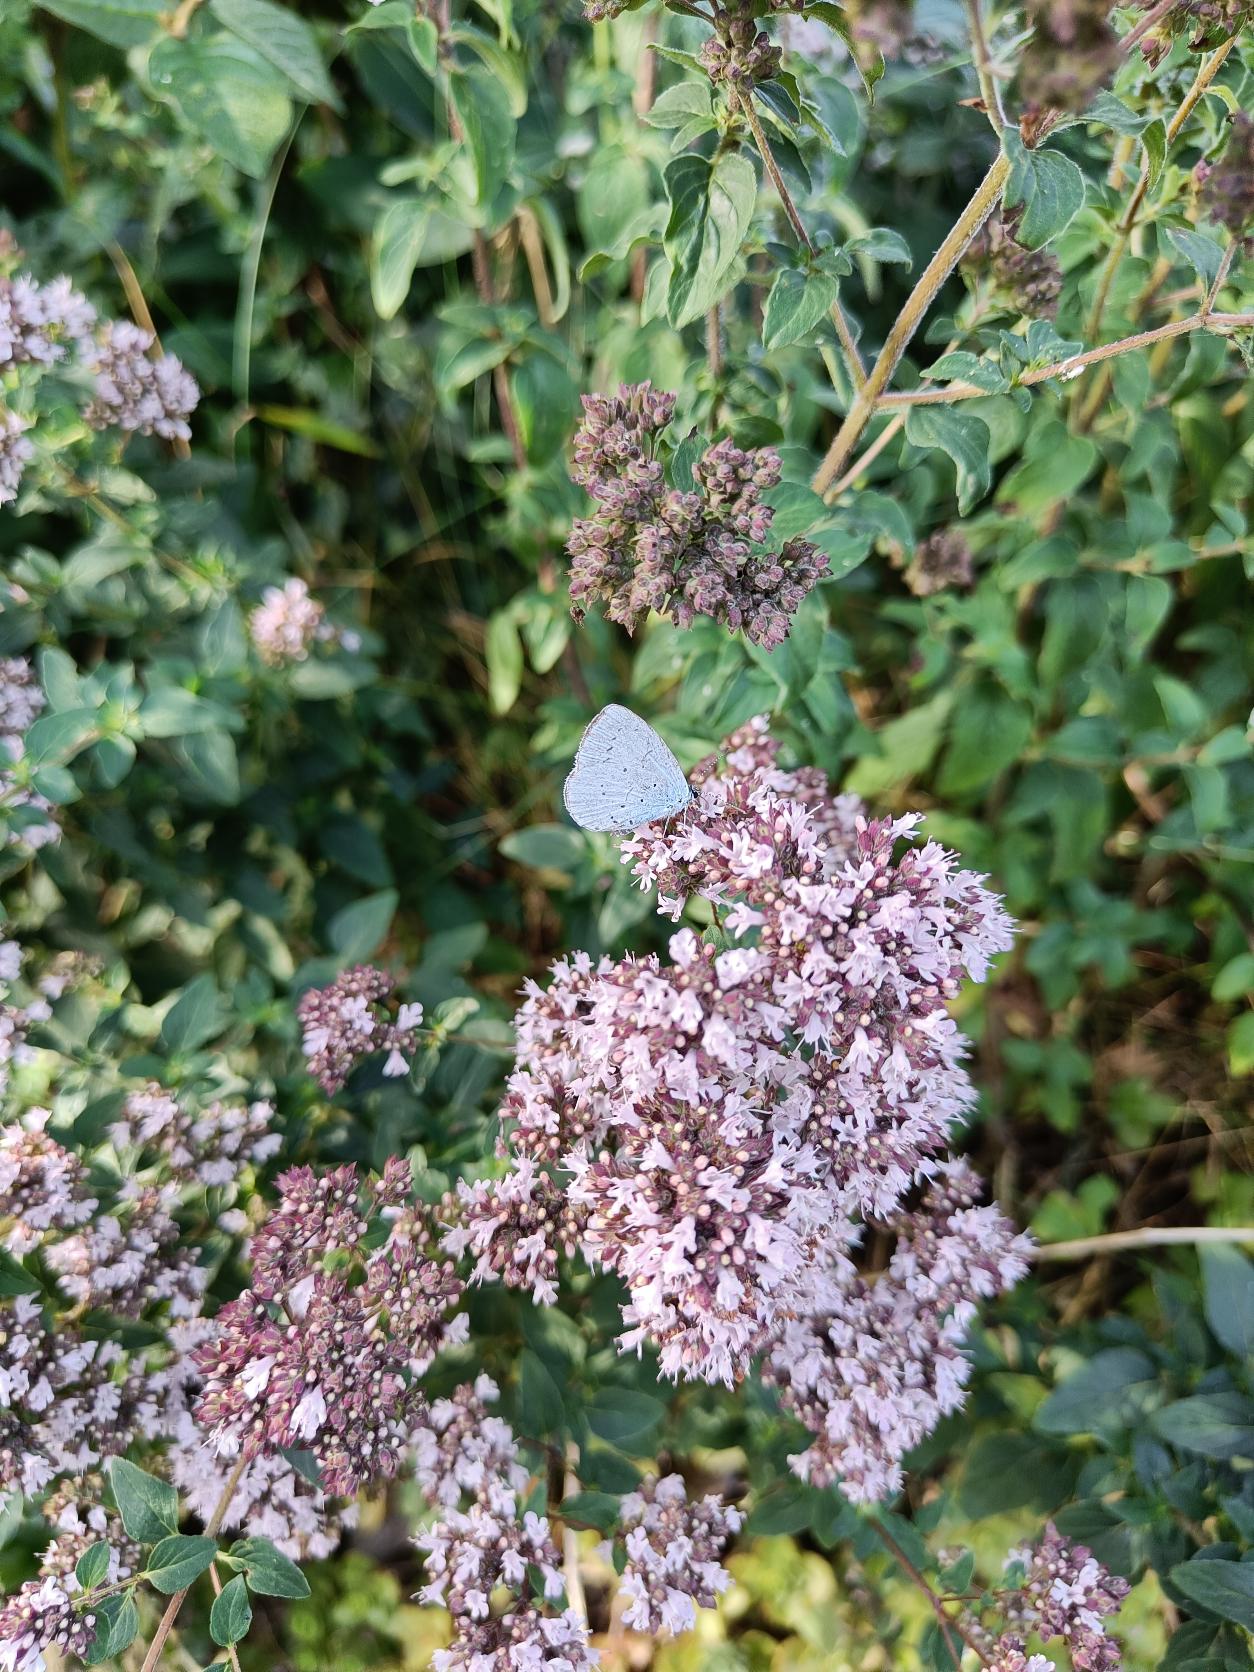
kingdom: Animalia
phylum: Arthropoda
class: Insecta
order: Lepidoptera
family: Lycaenidae
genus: Celastrina
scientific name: Celastrina argiolus
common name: Skovblåfugl
